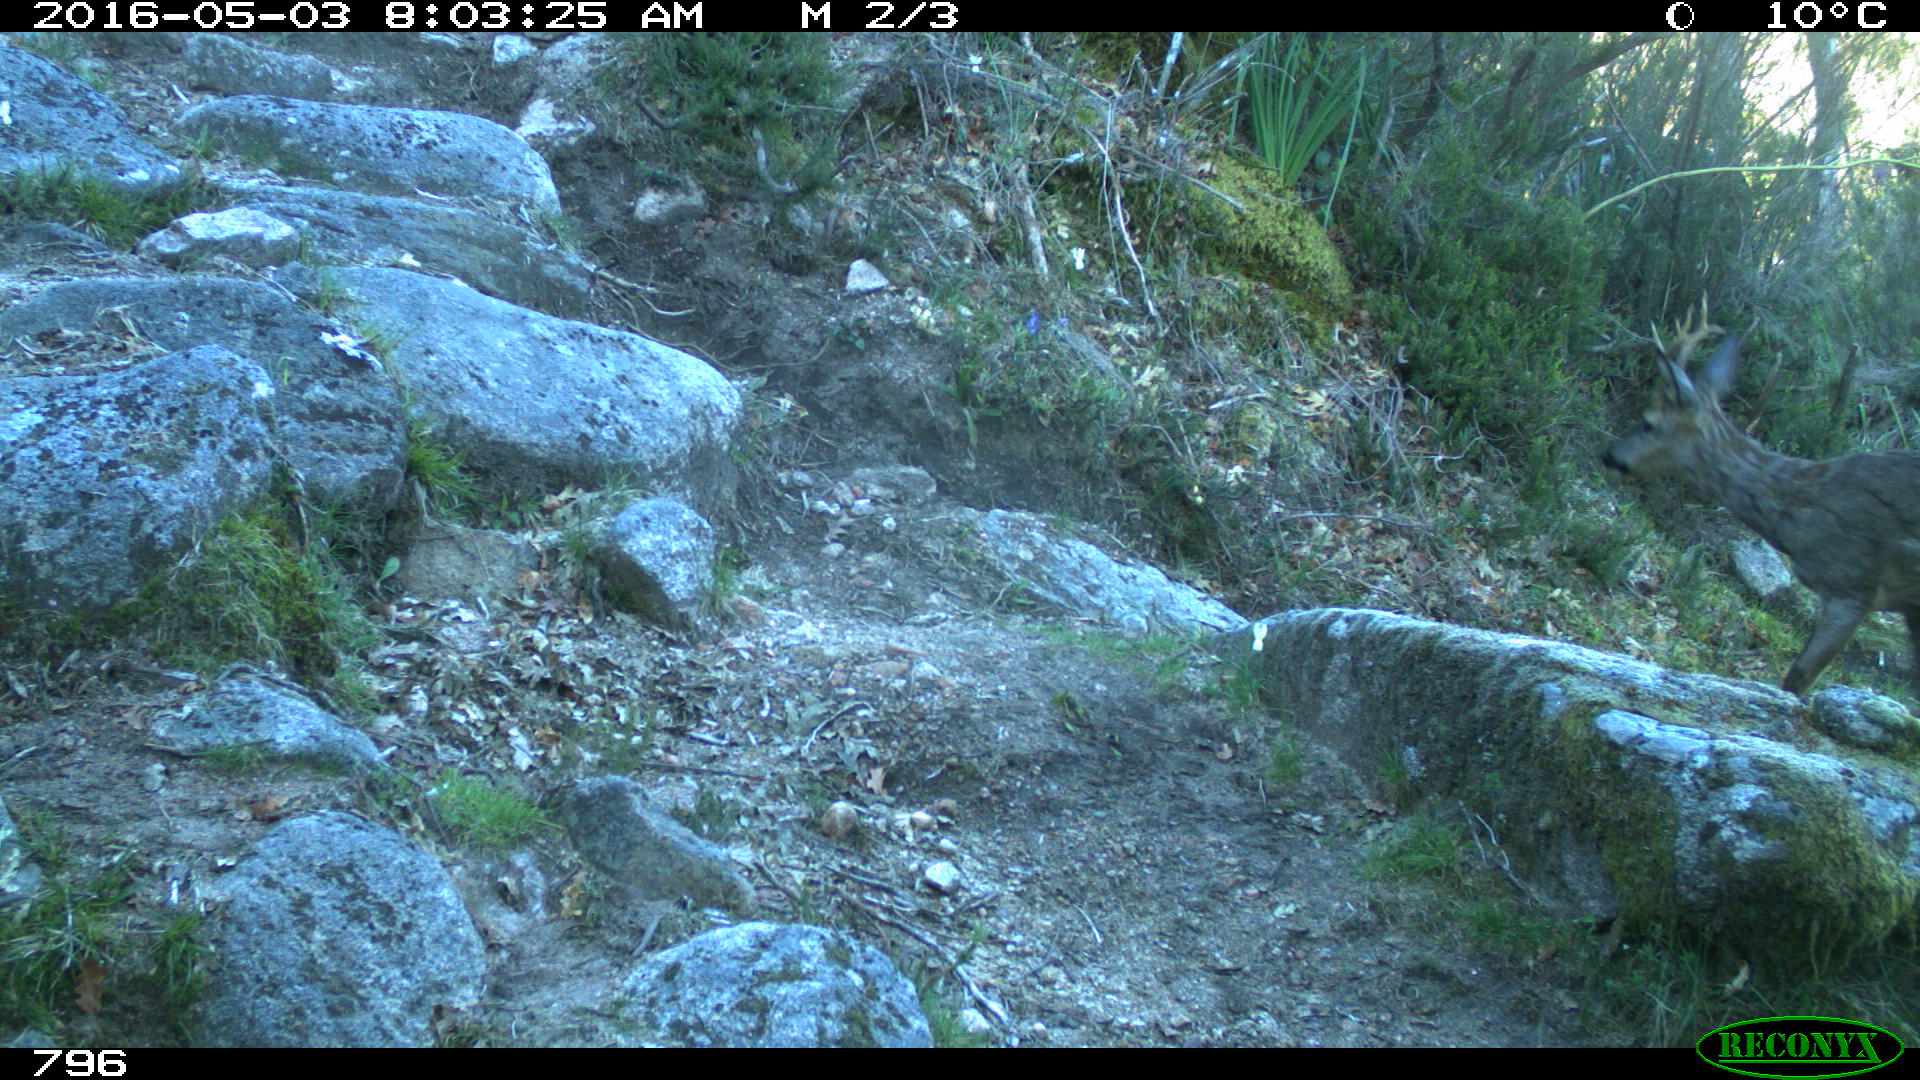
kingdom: Animalia
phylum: Chordata
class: Mammalia
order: Artiodactyla
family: Cervidae
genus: Capreolus
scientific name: Capreolus capreolus
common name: Western roe deer
